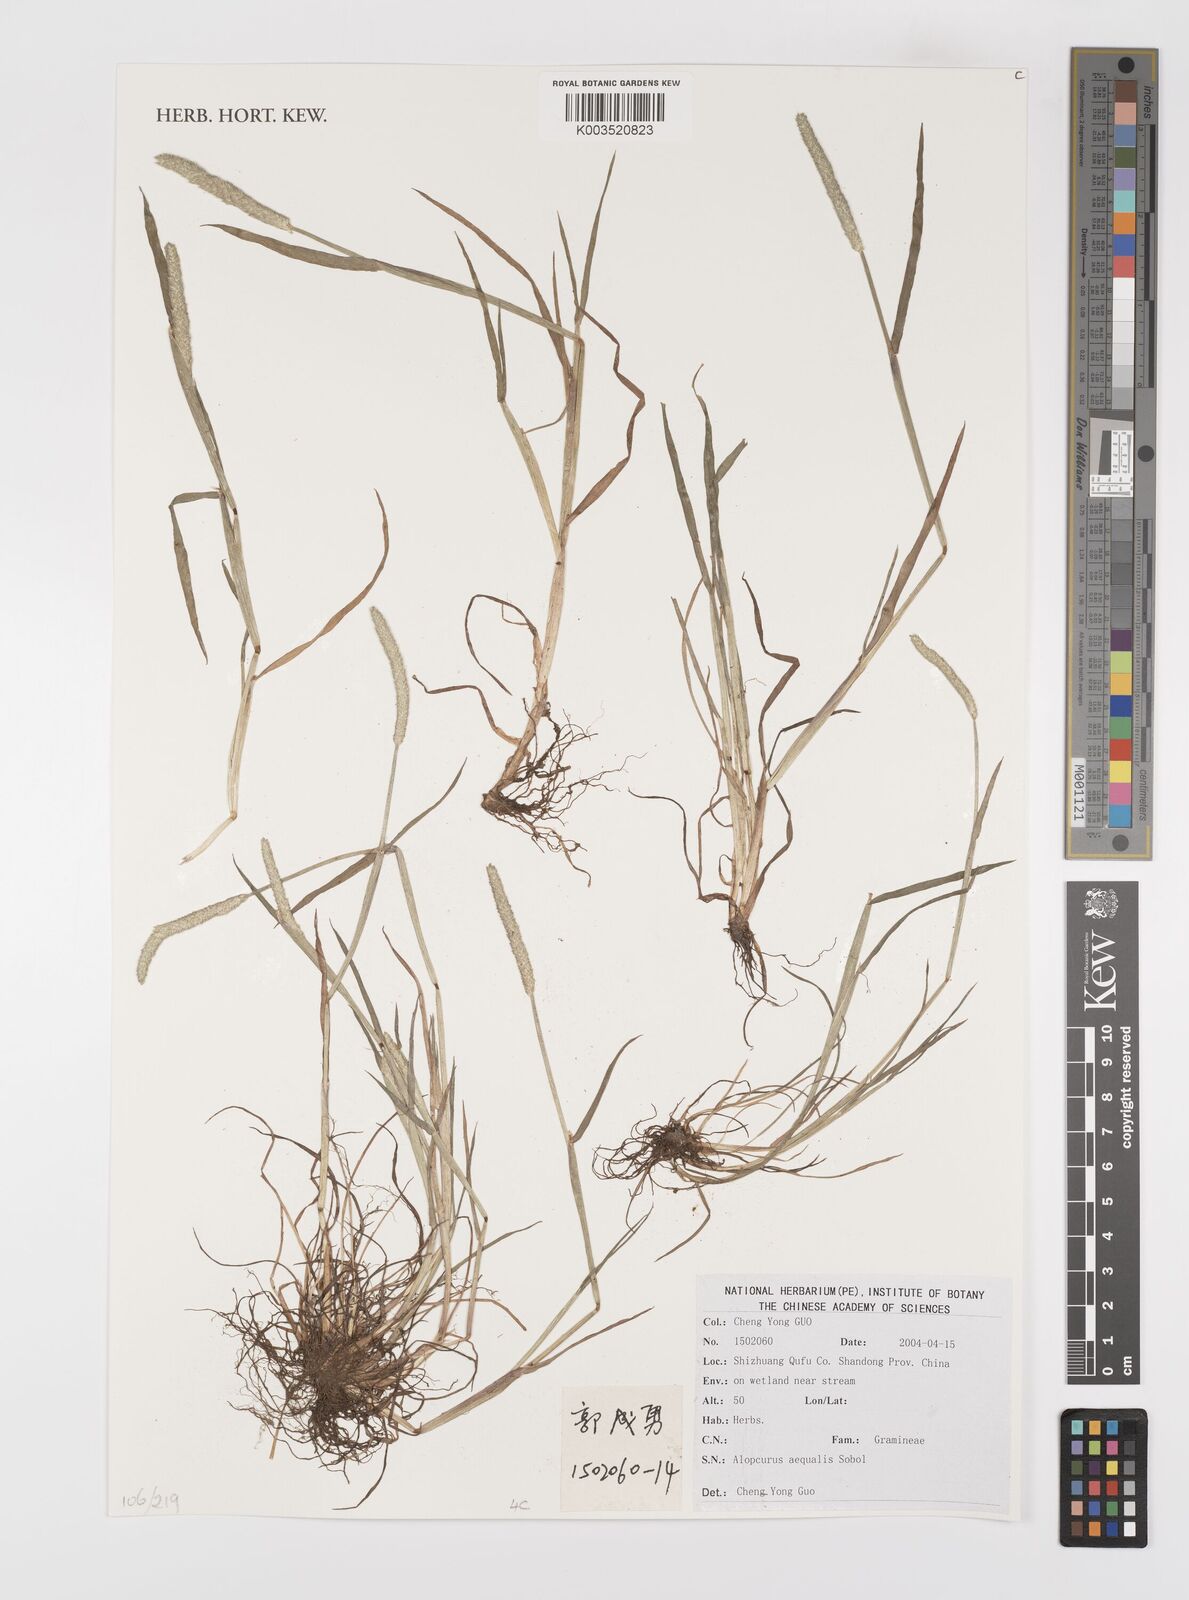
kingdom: Plantae
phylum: Tracheophyta
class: Liliopsida
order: Poales
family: Poaceae
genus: Alopecurus
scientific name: Alopecurus aequalis
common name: Orange foxtail
